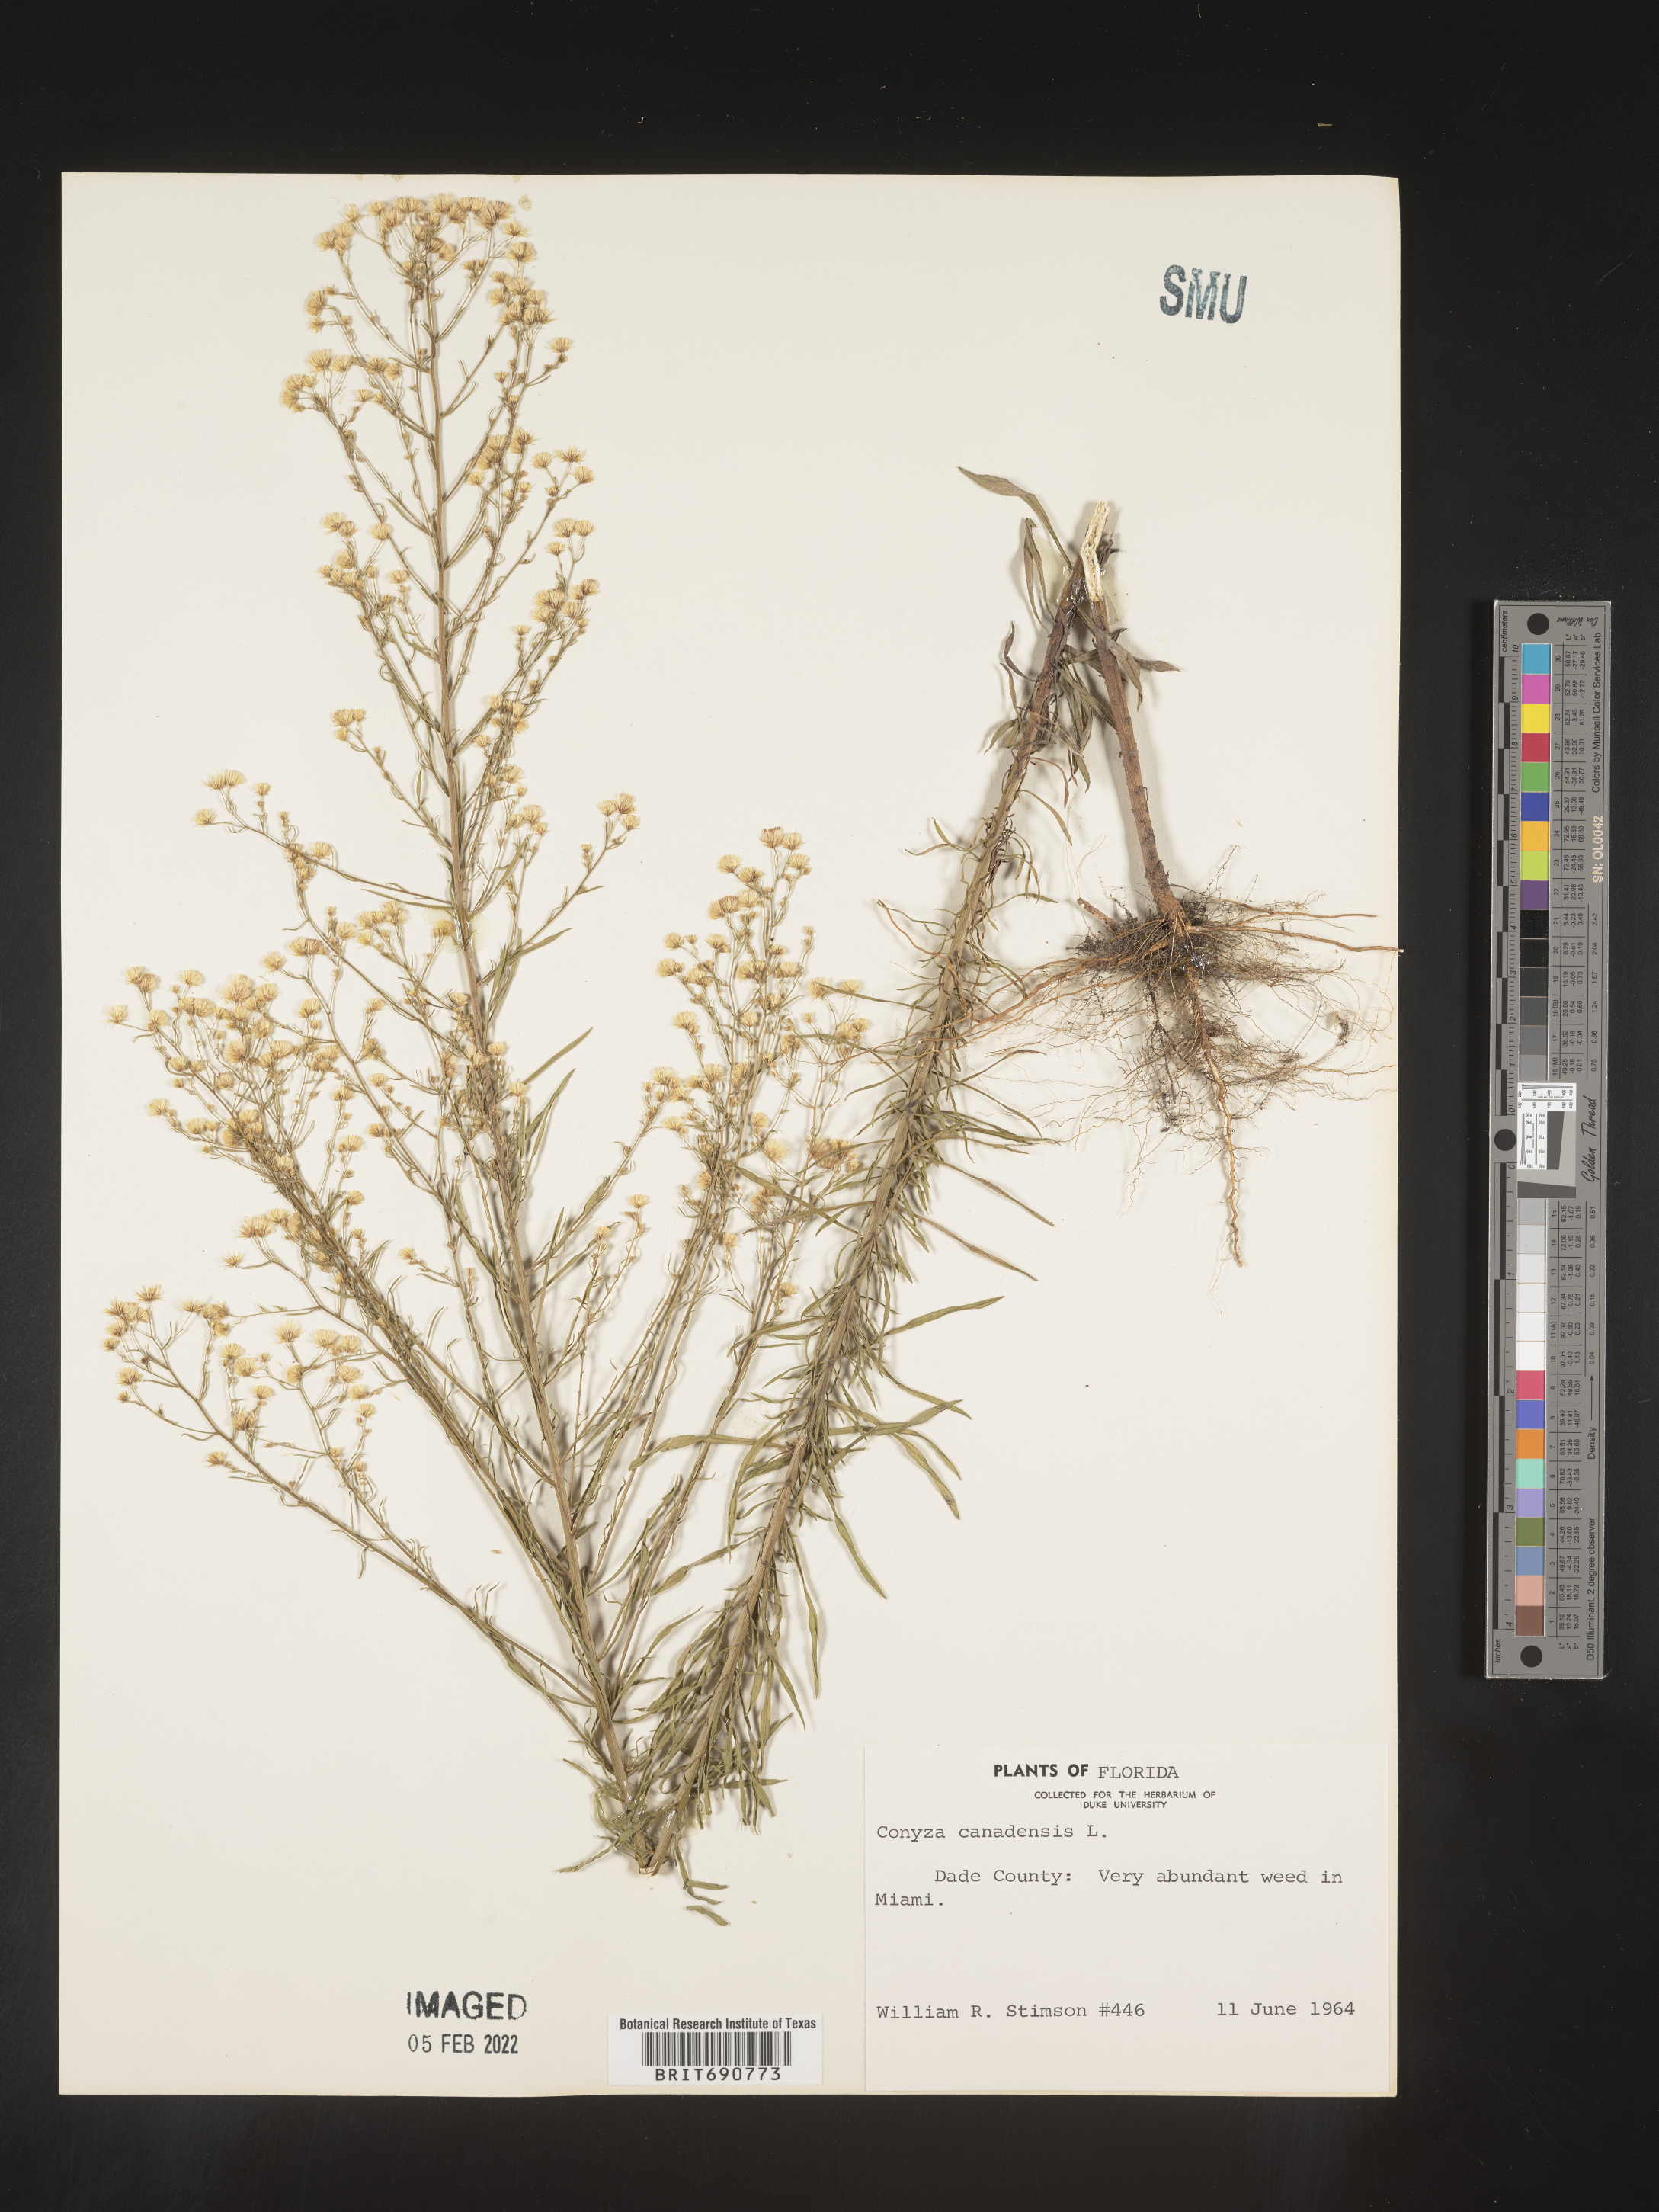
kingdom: Plantae
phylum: Tracheophyta
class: Magnoliopsida
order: Asterales
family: Asteraceae
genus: Erigeron
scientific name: Erigeron canadensis
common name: Canadian fleabane
